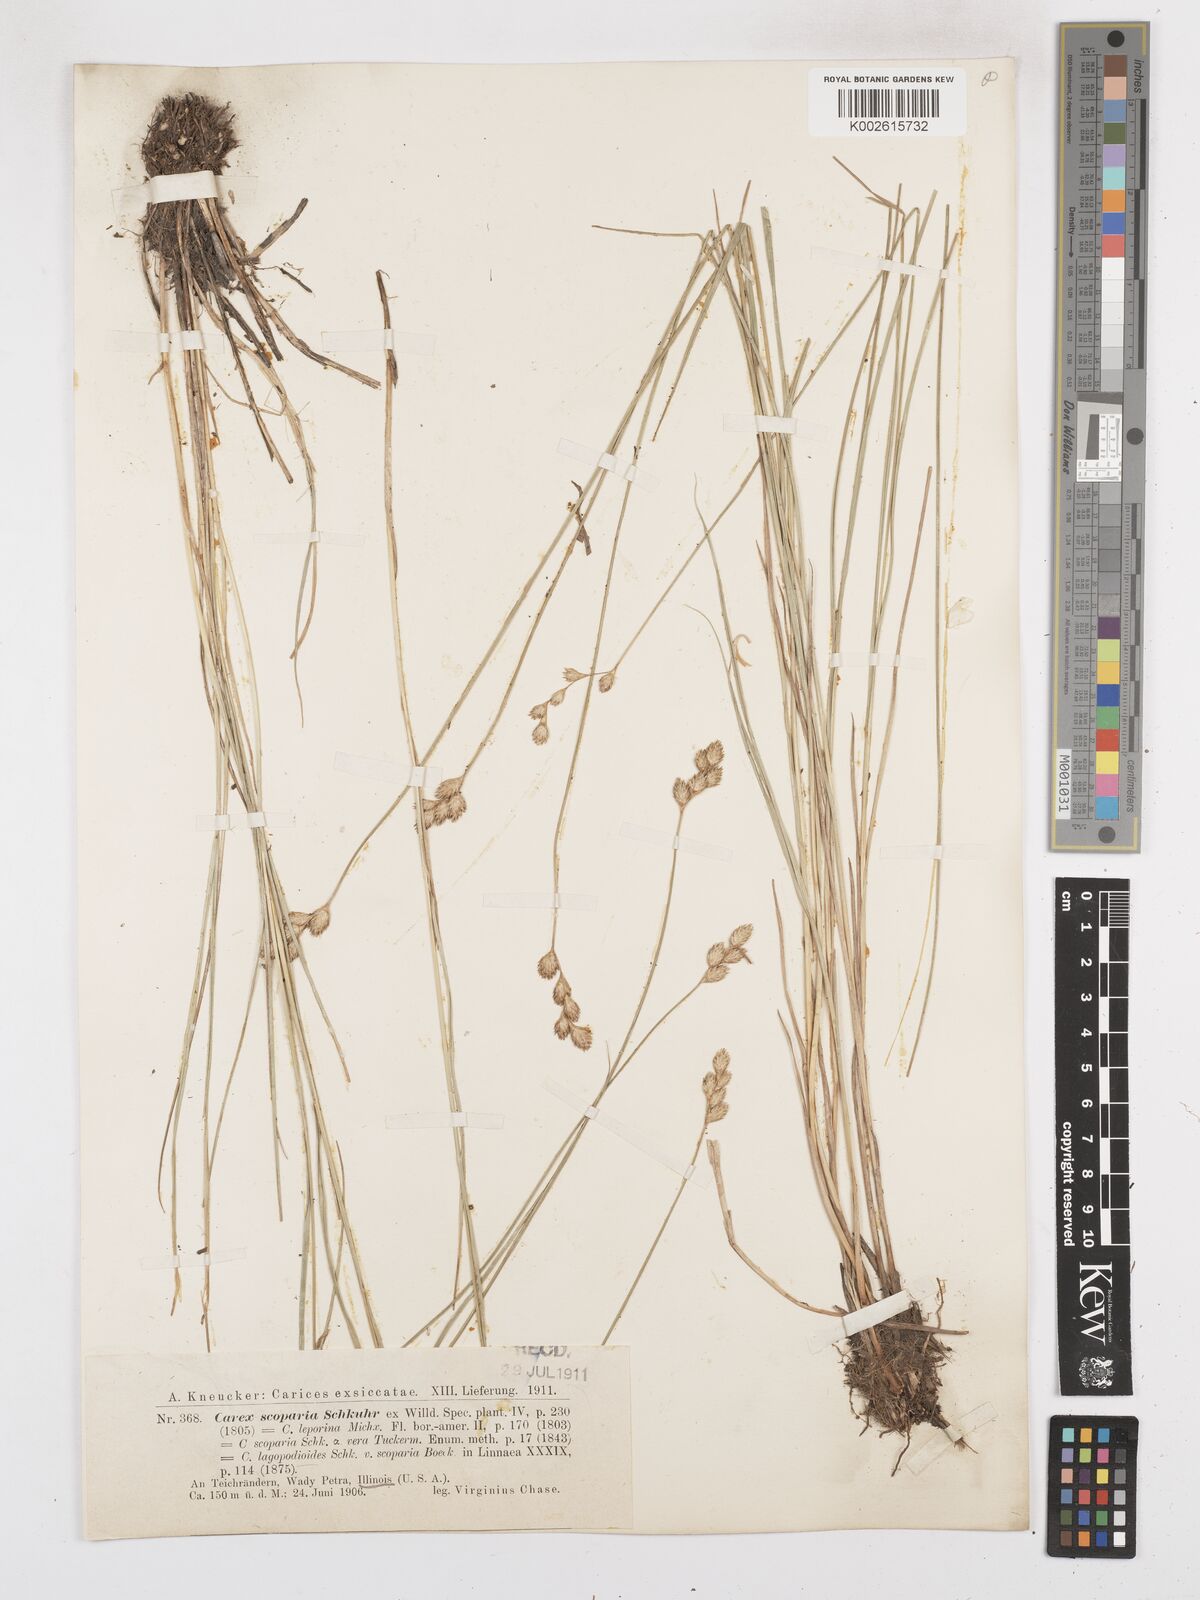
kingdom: Plantae
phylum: Tracheophyta
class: Liliopsida
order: Poales
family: Cyperaceae
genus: Carex
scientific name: Carex leporina
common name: Oval sedge
